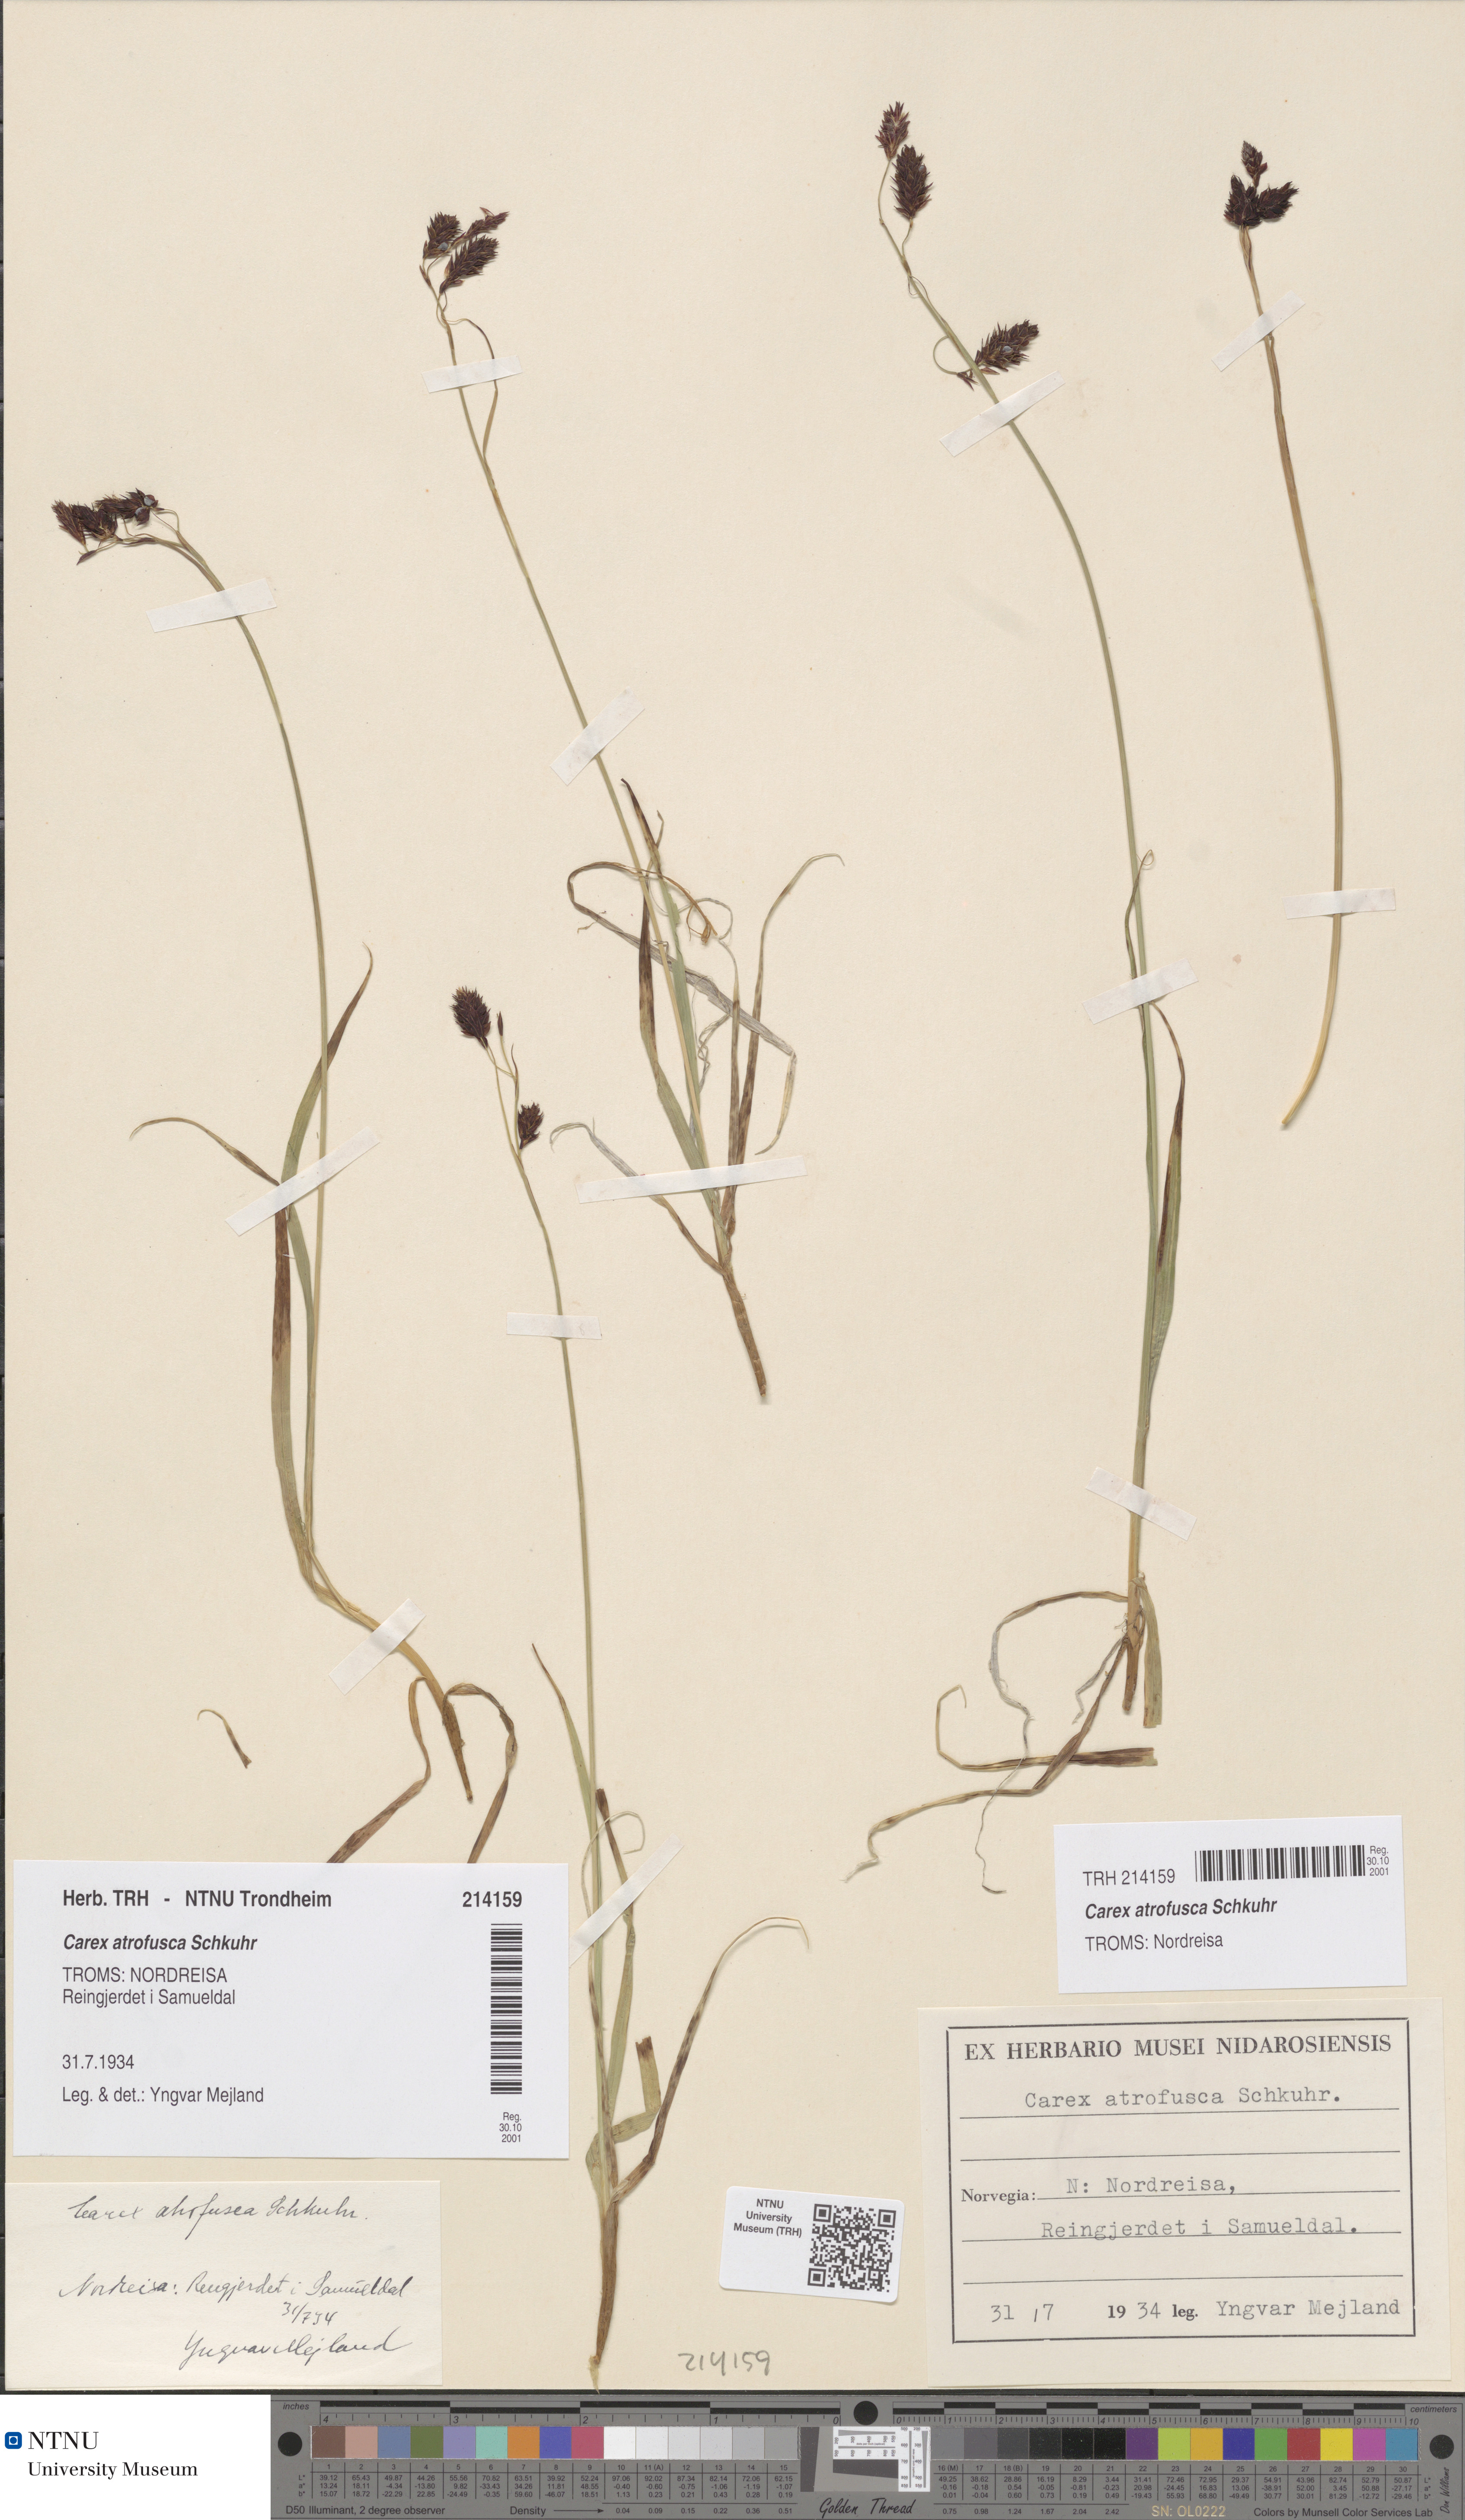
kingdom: Plantae
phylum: Tracheophyta
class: Liliopsida
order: Poales
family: Cyperaceae
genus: Carex
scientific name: Carex atrofusca
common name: Scorched alpine-sedge
